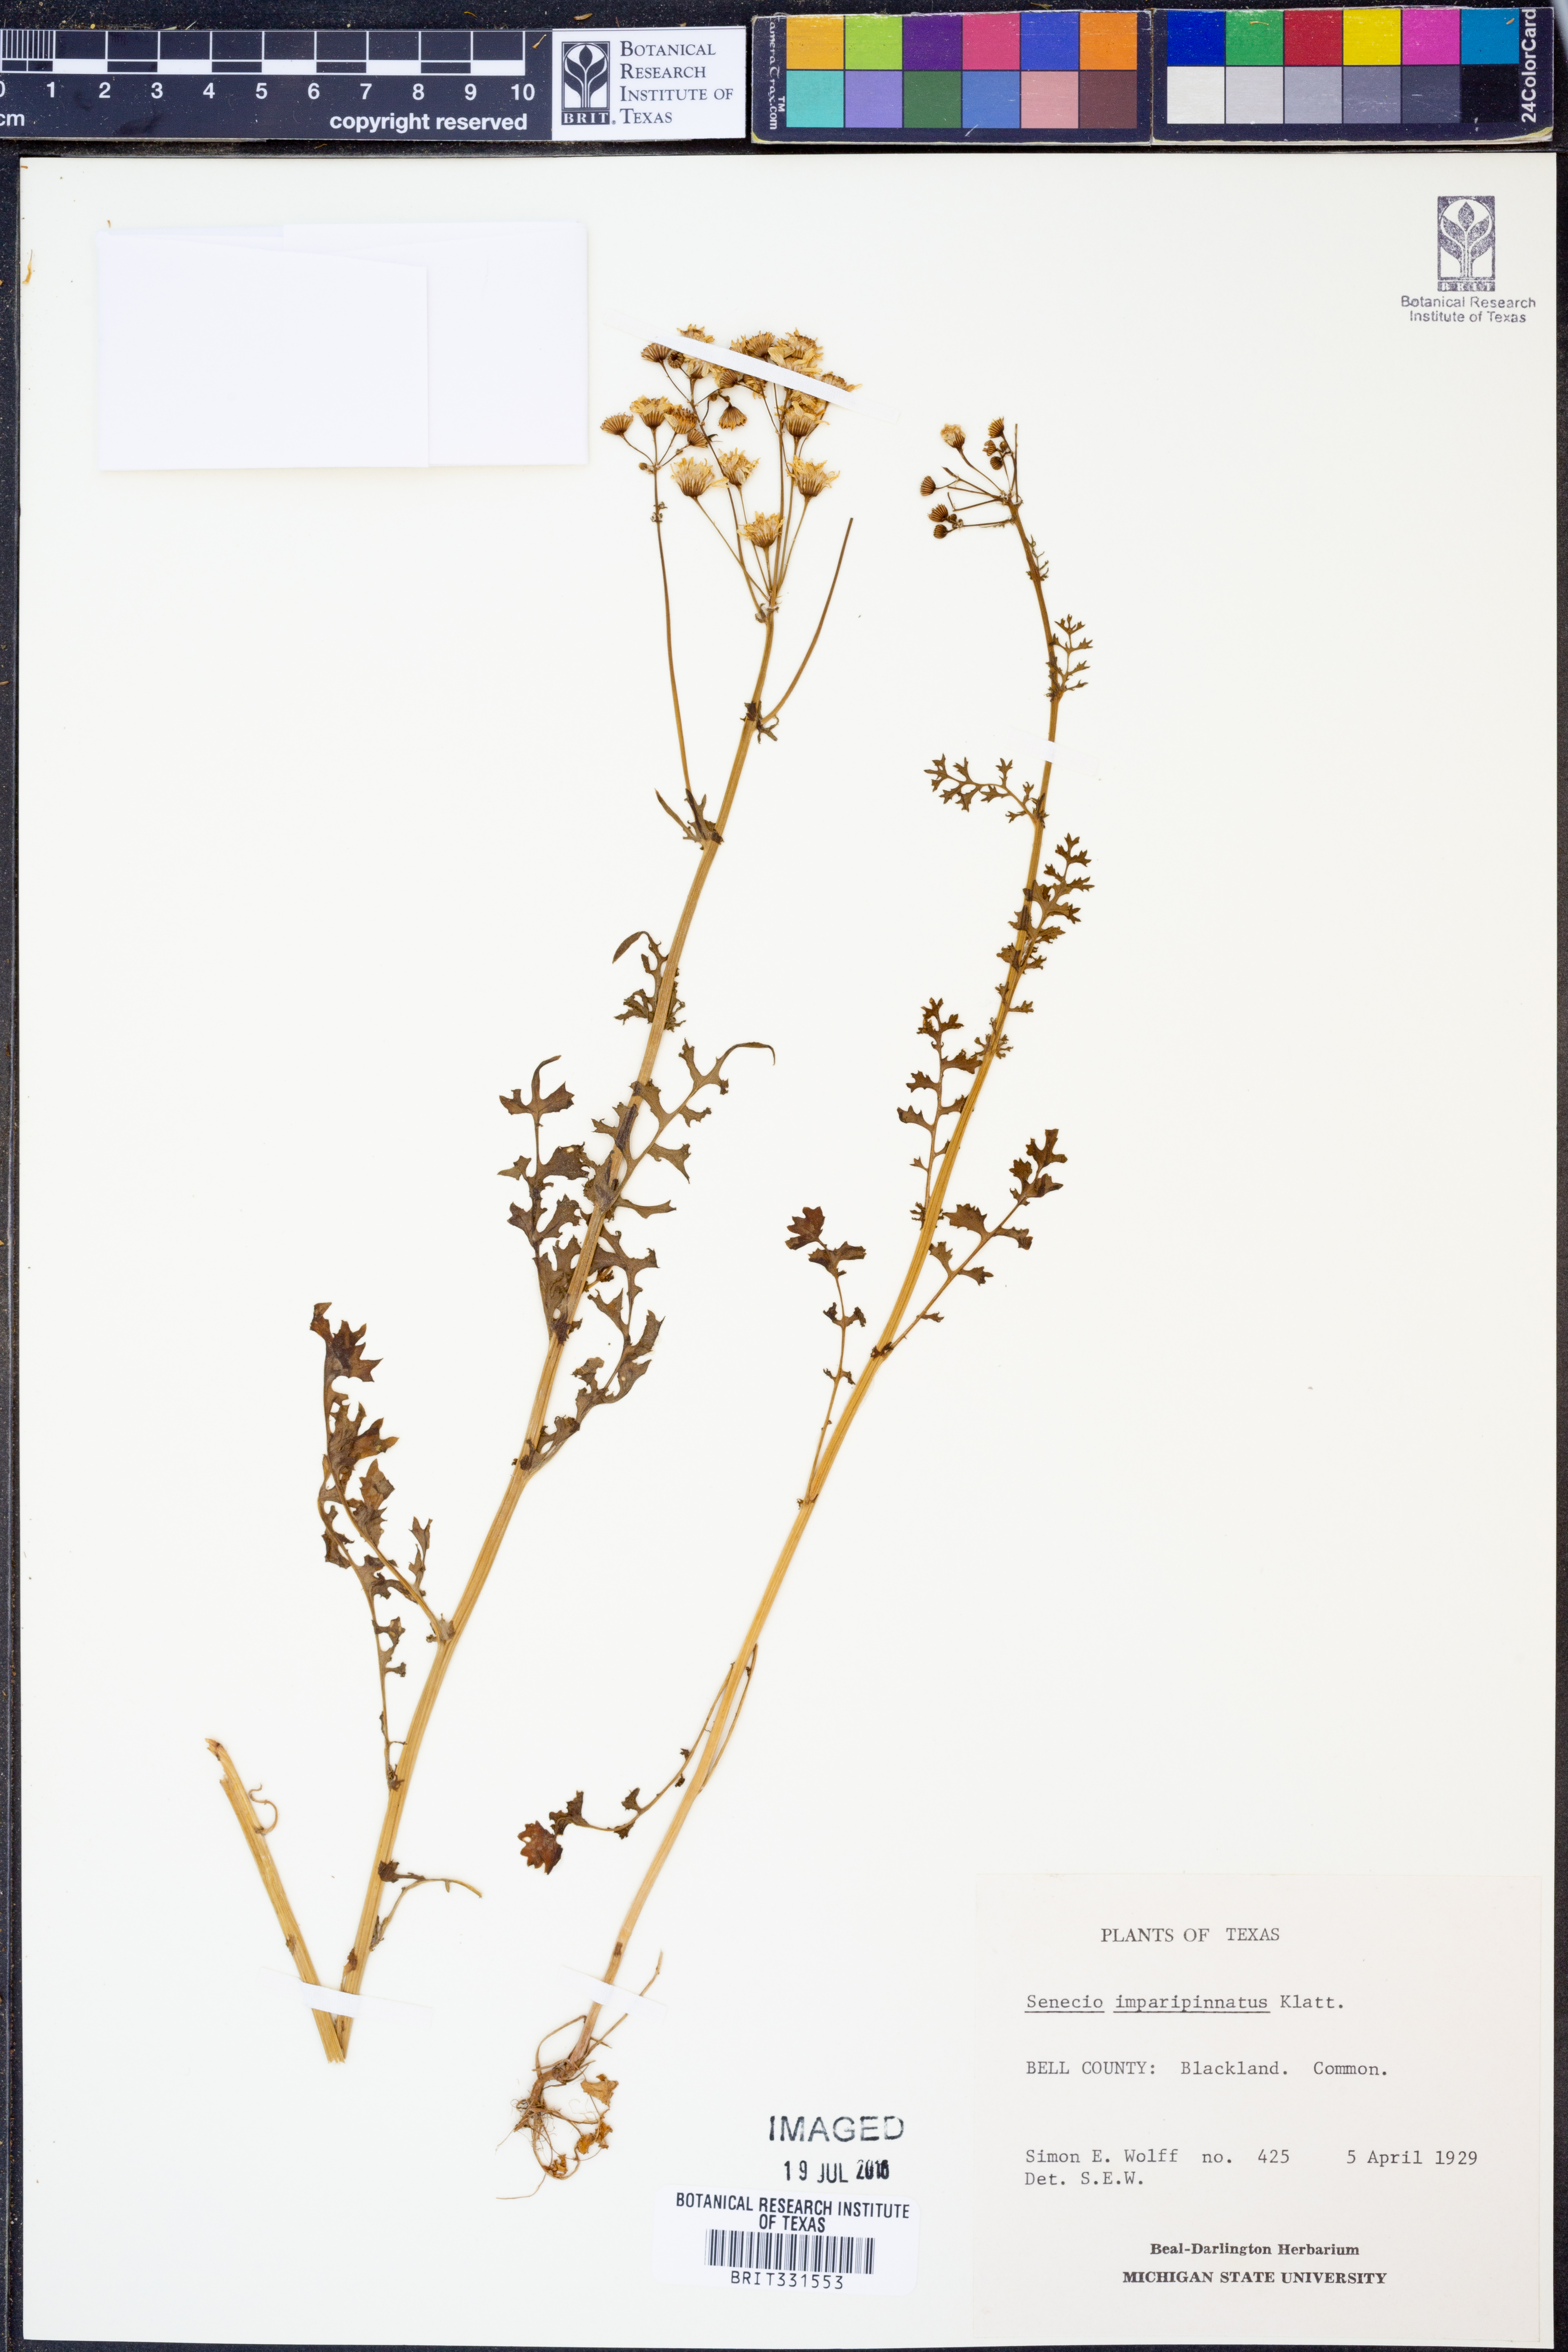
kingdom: Plantae
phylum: Tracheophyta
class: Magnoliopsida
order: Asterales
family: Asteraceae
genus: Packera
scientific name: Packera tampicana
